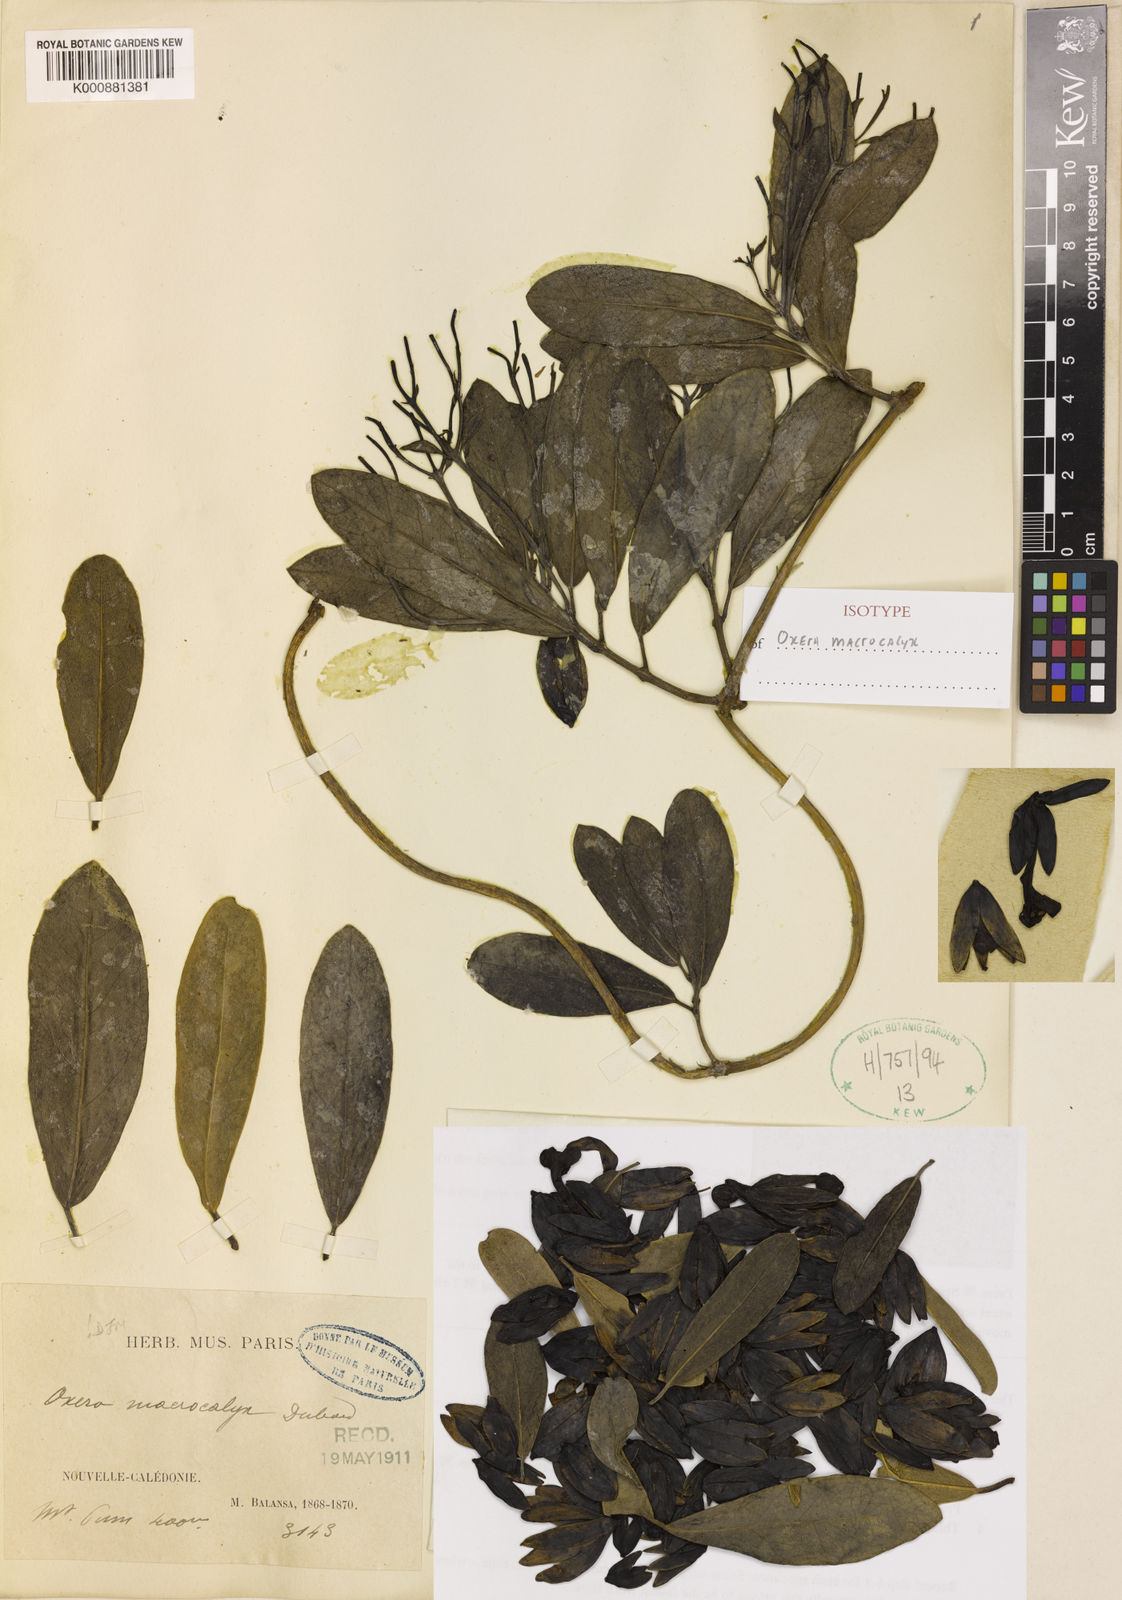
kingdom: Plantae
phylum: Tracheophyta
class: Magnoliopsida
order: Lamiales
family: Lamiaceae
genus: Oxera
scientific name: Oxera neriifolia
